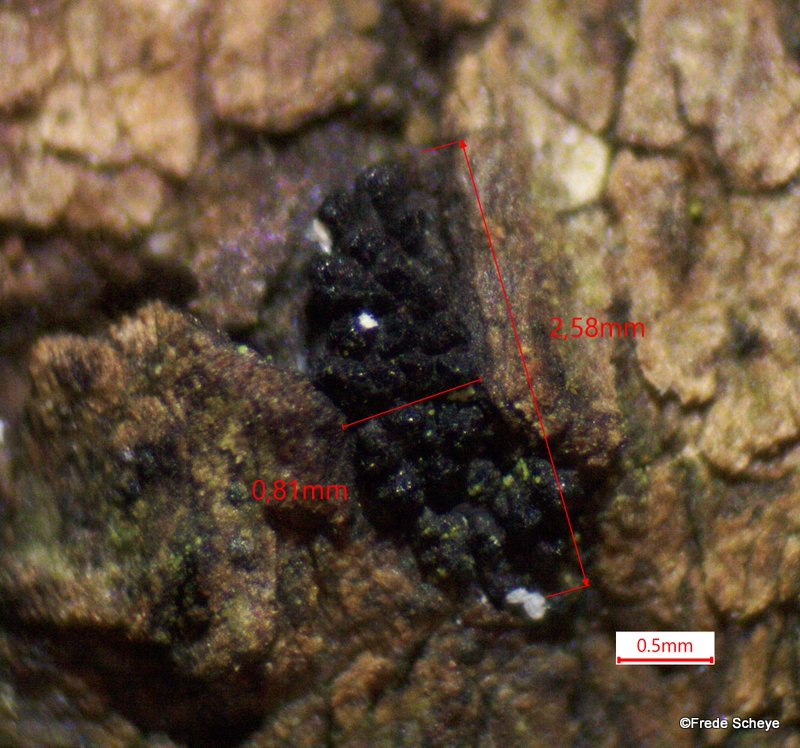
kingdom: Fungi
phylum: Ascomycota
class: Sordariomycetes
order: Xylariales
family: Diatrypaceae
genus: Eutypella
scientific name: Eutypella prunastri
